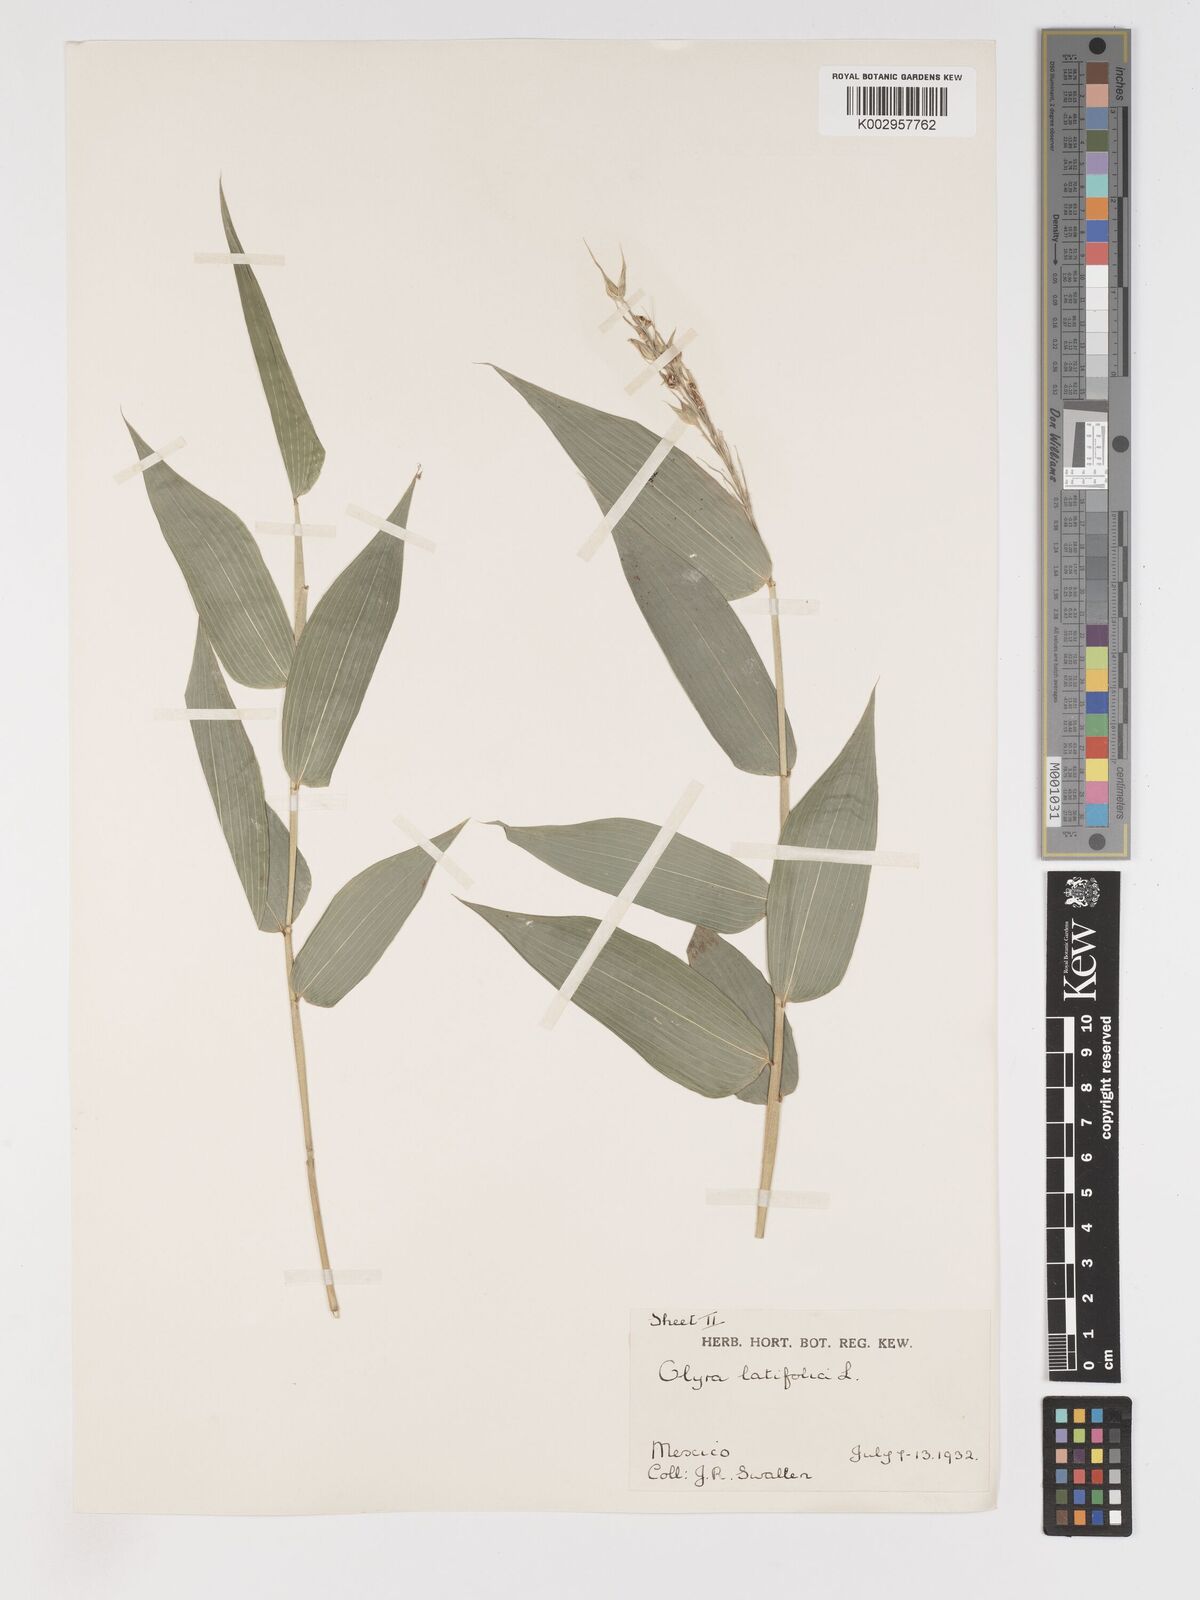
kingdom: Plantae
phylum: Tracheophyta
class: Liliopsida
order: Poales
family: Poaceae
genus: Olyra
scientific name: Olyra latifolia
